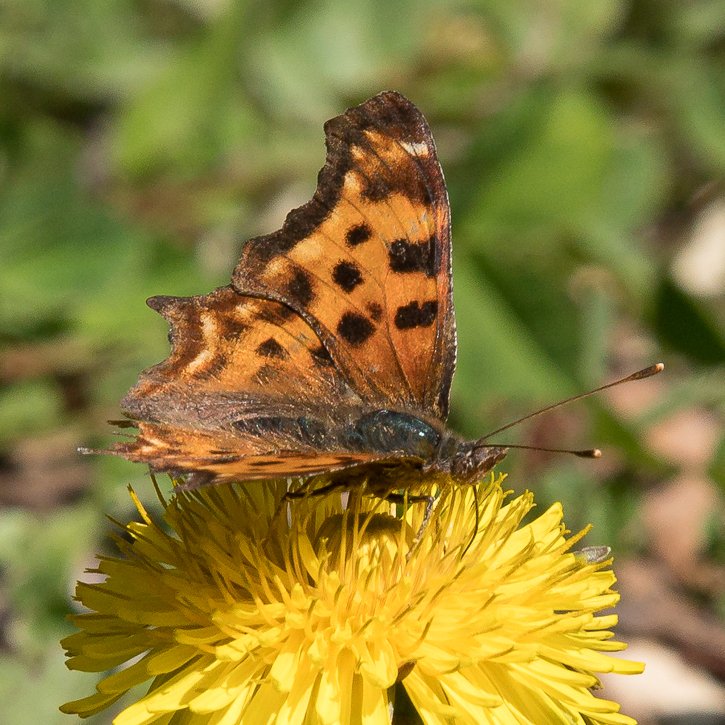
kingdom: Animalia
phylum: Arthropoda
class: Insecta
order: Lepidoptera
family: Nymphalidae
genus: Polygonia
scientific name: Polygonia satyrus
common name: Satyr Comma
